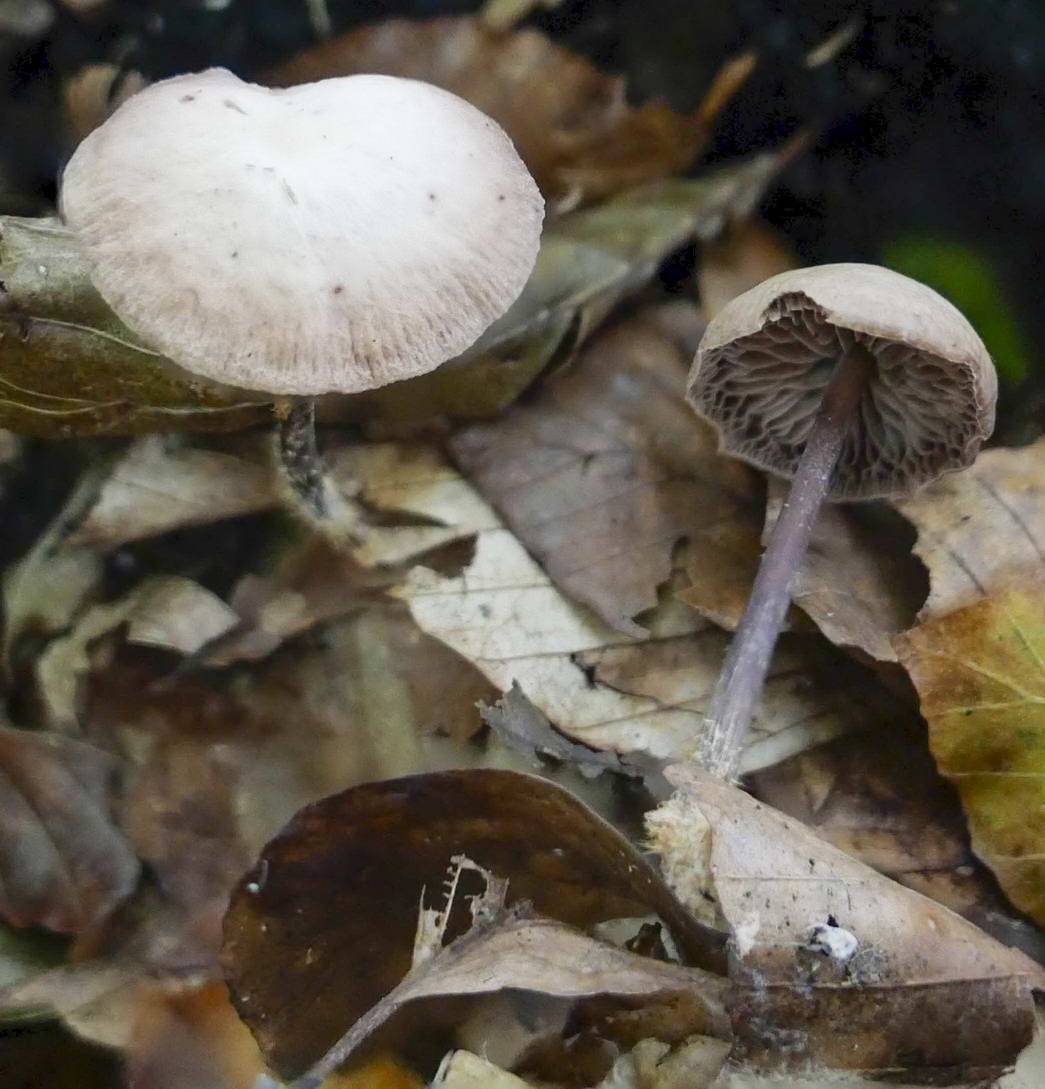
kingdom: Fungi
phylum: Basidiomycota
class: Agaricomycetes
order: Agaricales
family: Omphalotaceae
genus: Gymnopus
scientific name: Gymnopus fagiphilus
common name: bøgeløv-fladhat
